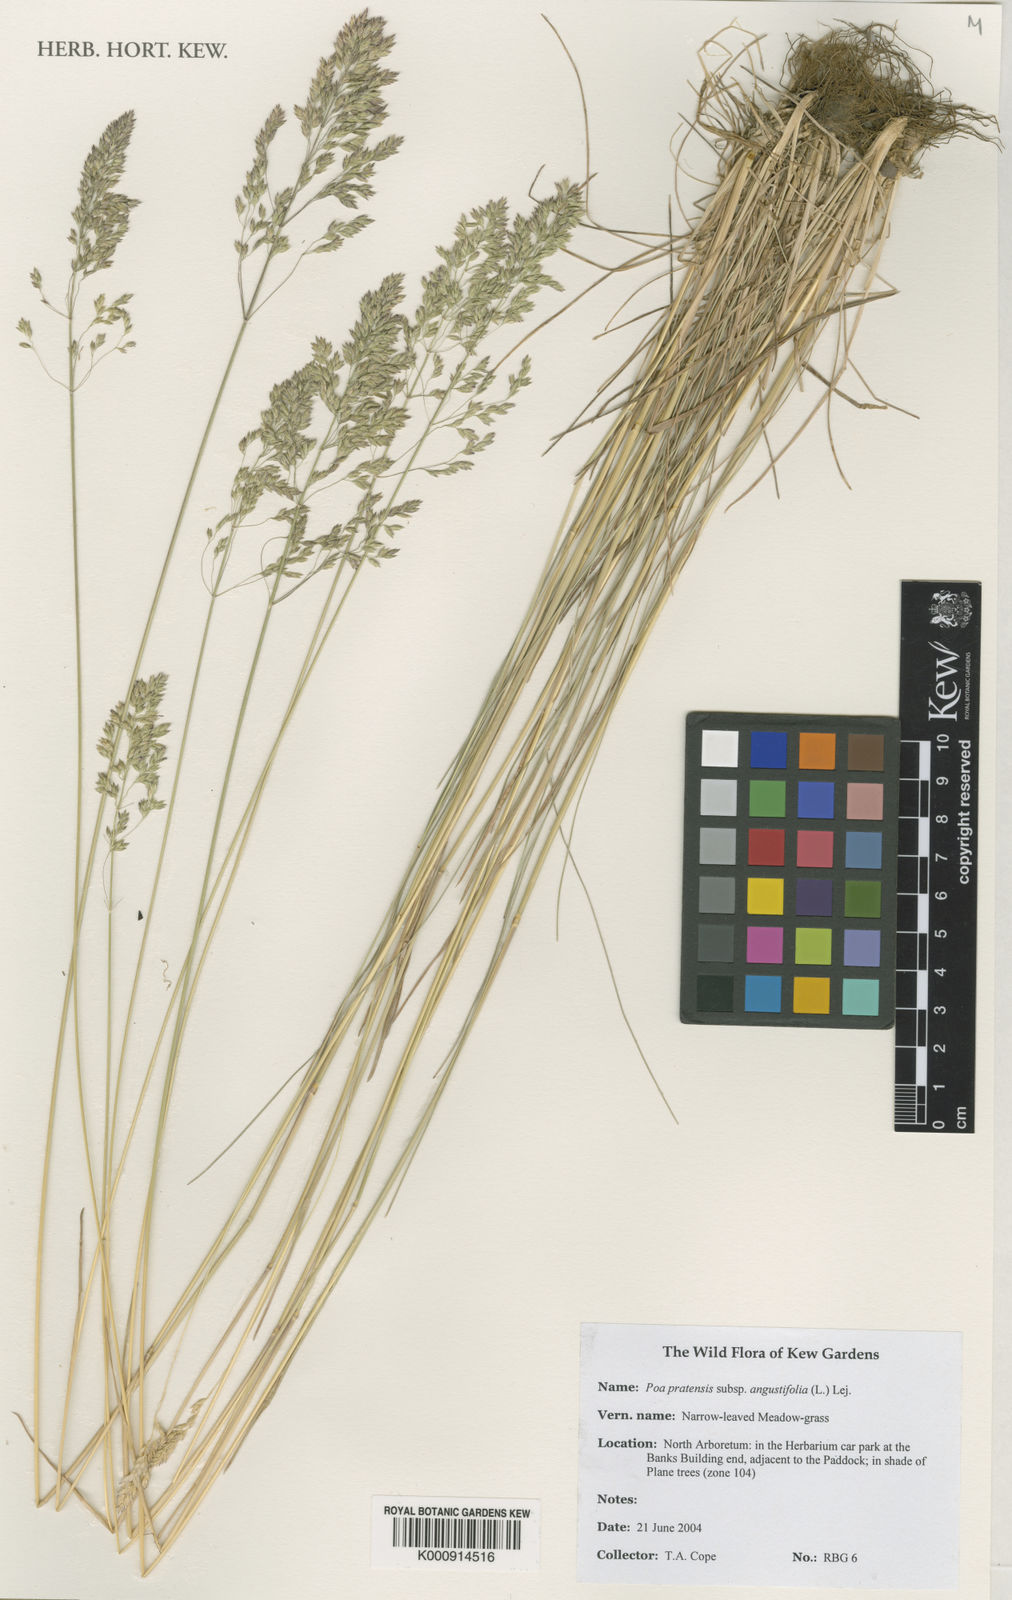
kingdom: Plantae
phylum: Tracheophyta
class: Liliopsida
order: Poales
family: Poaceae
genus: Poa
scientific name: Poa
